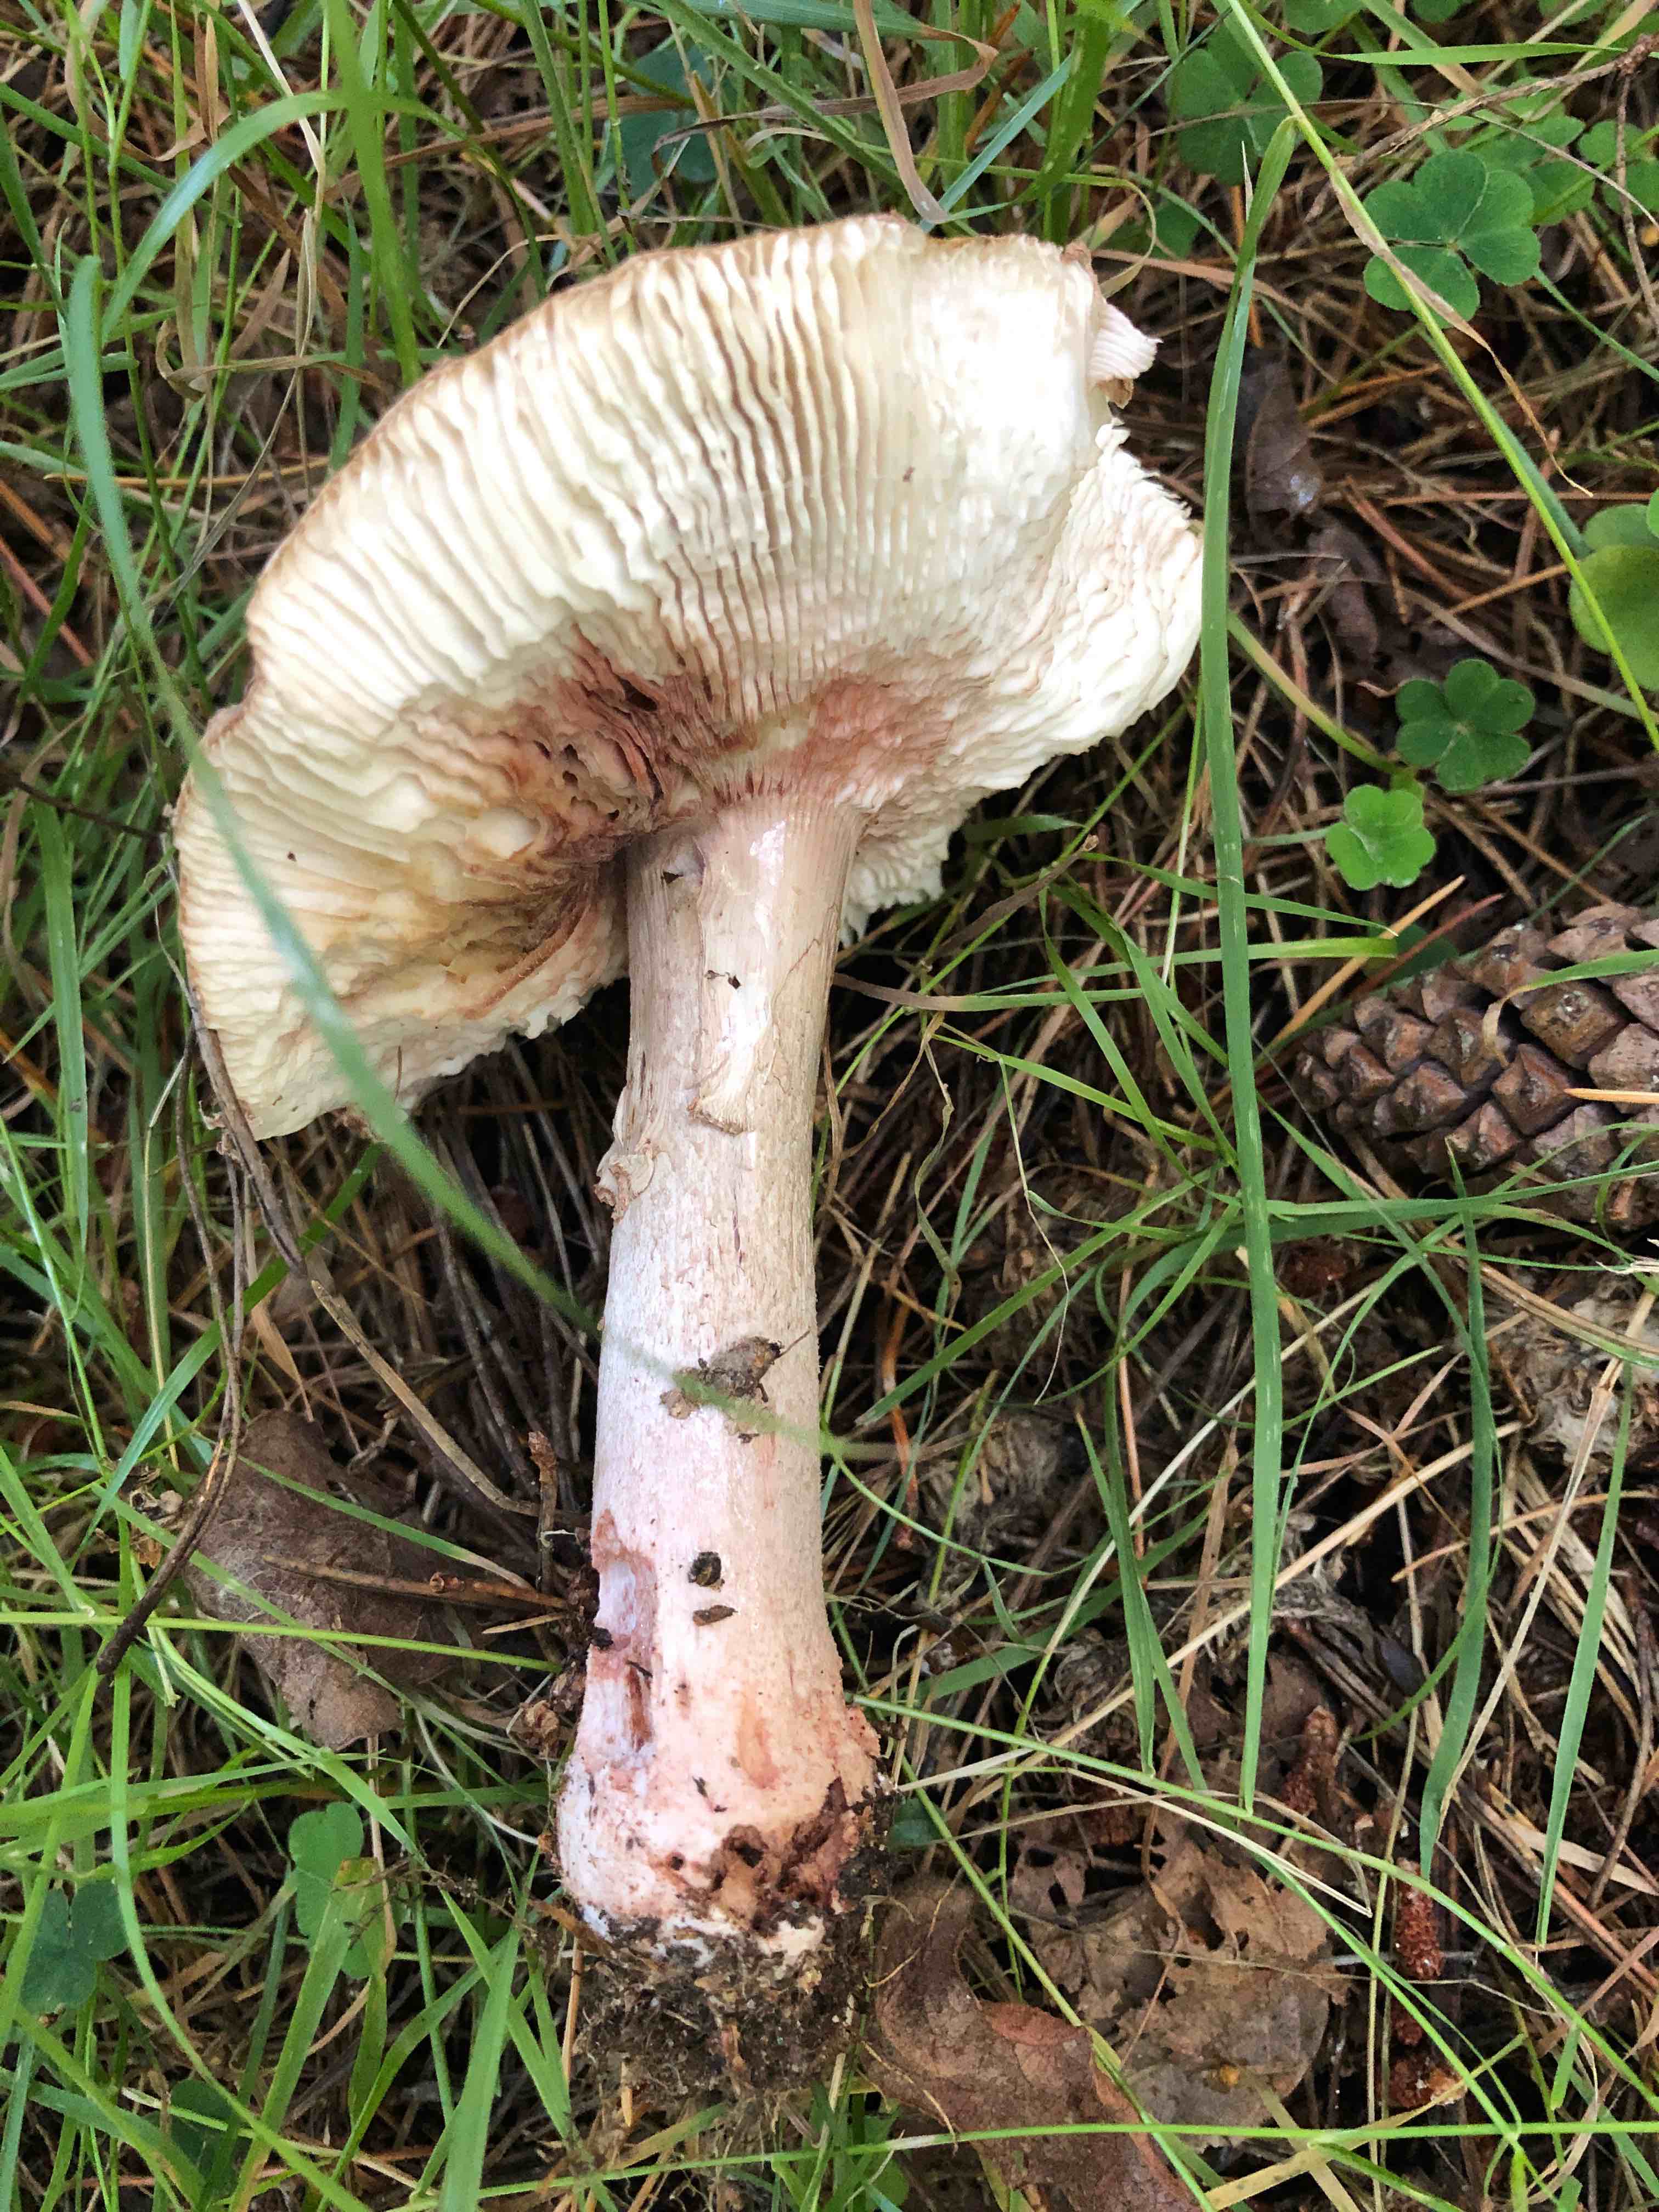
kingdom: Fungi
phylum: Basidiomycota
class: Agaricomycetes
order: Agaricales
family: Amanitaceae
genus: Amanita
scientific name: Amanita rubescens
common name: rødmende fluesvamp
